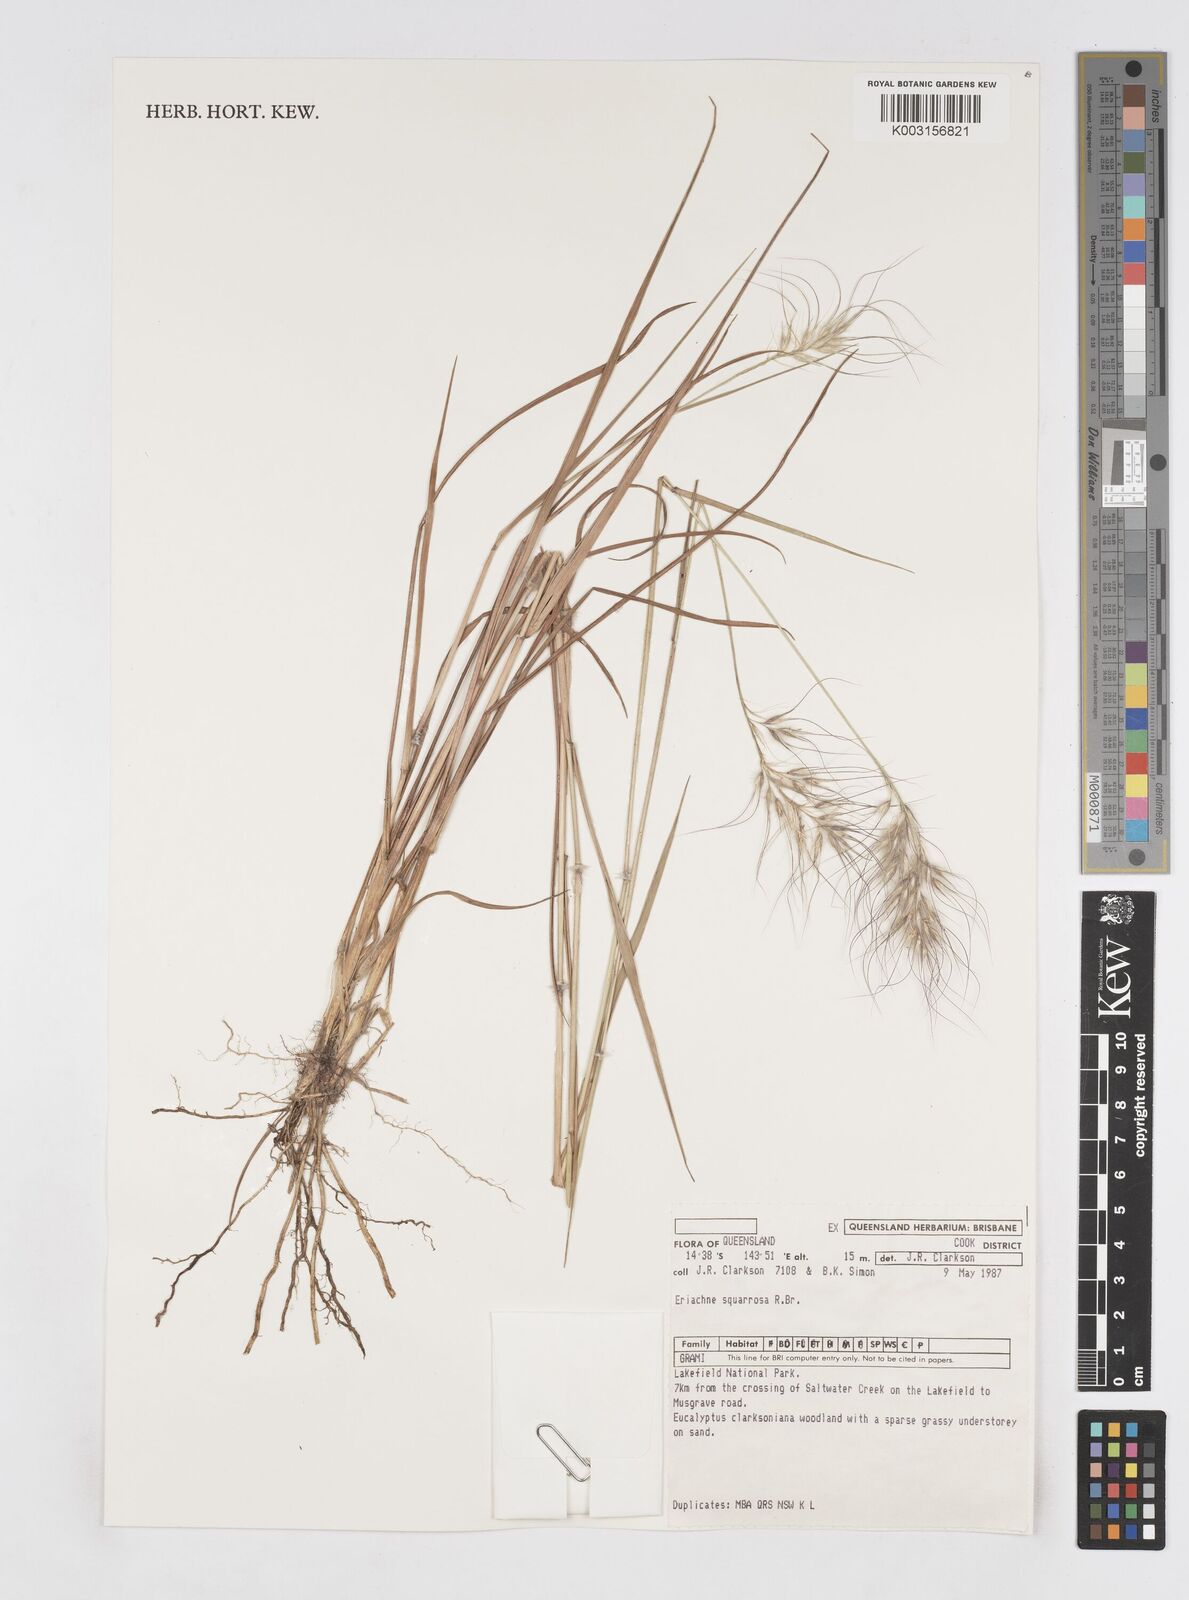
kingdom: Plantae
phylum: Tracheophyta
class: Liliopsida
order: Poales
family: Poaceae
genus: Eriachne
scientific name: Eriachne squarrosa
